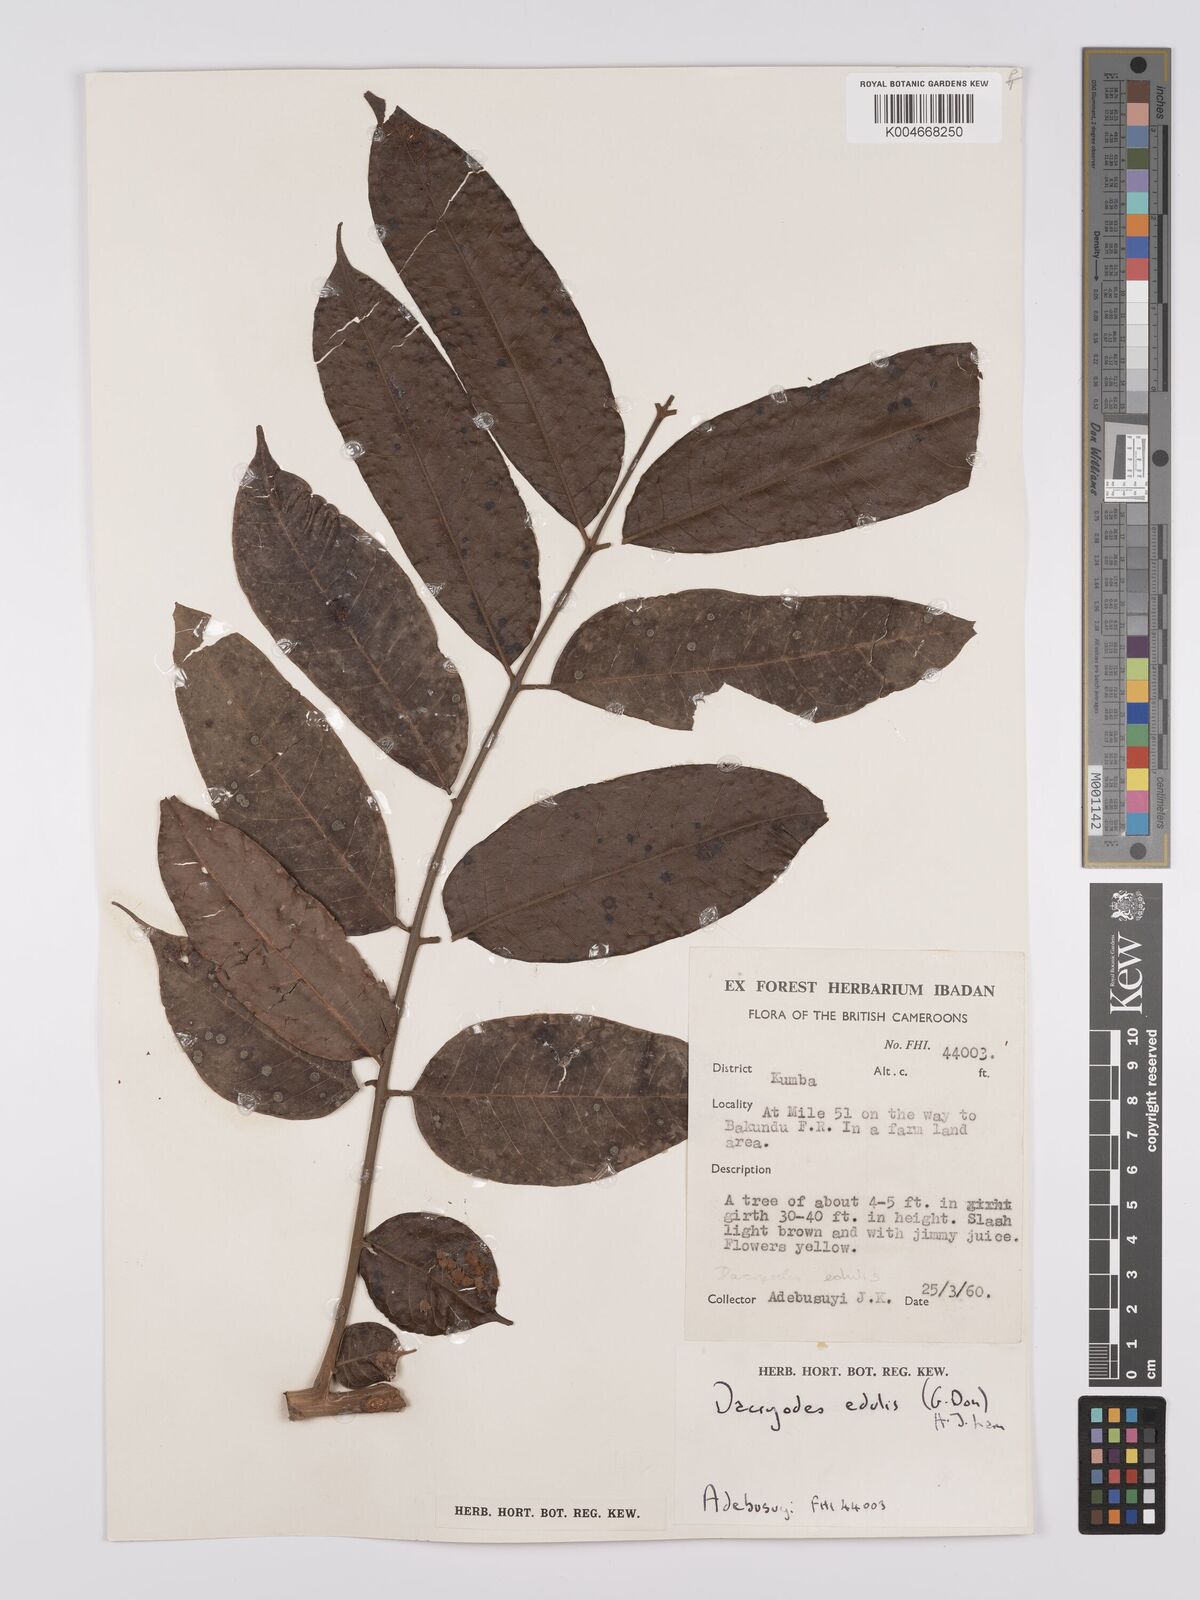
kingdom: Plantae
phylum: Tracheophyta
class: Magnoliopsida
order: Sapindales
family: Burseraceae
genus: Pachylobus
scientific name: Pachylobus edulis
